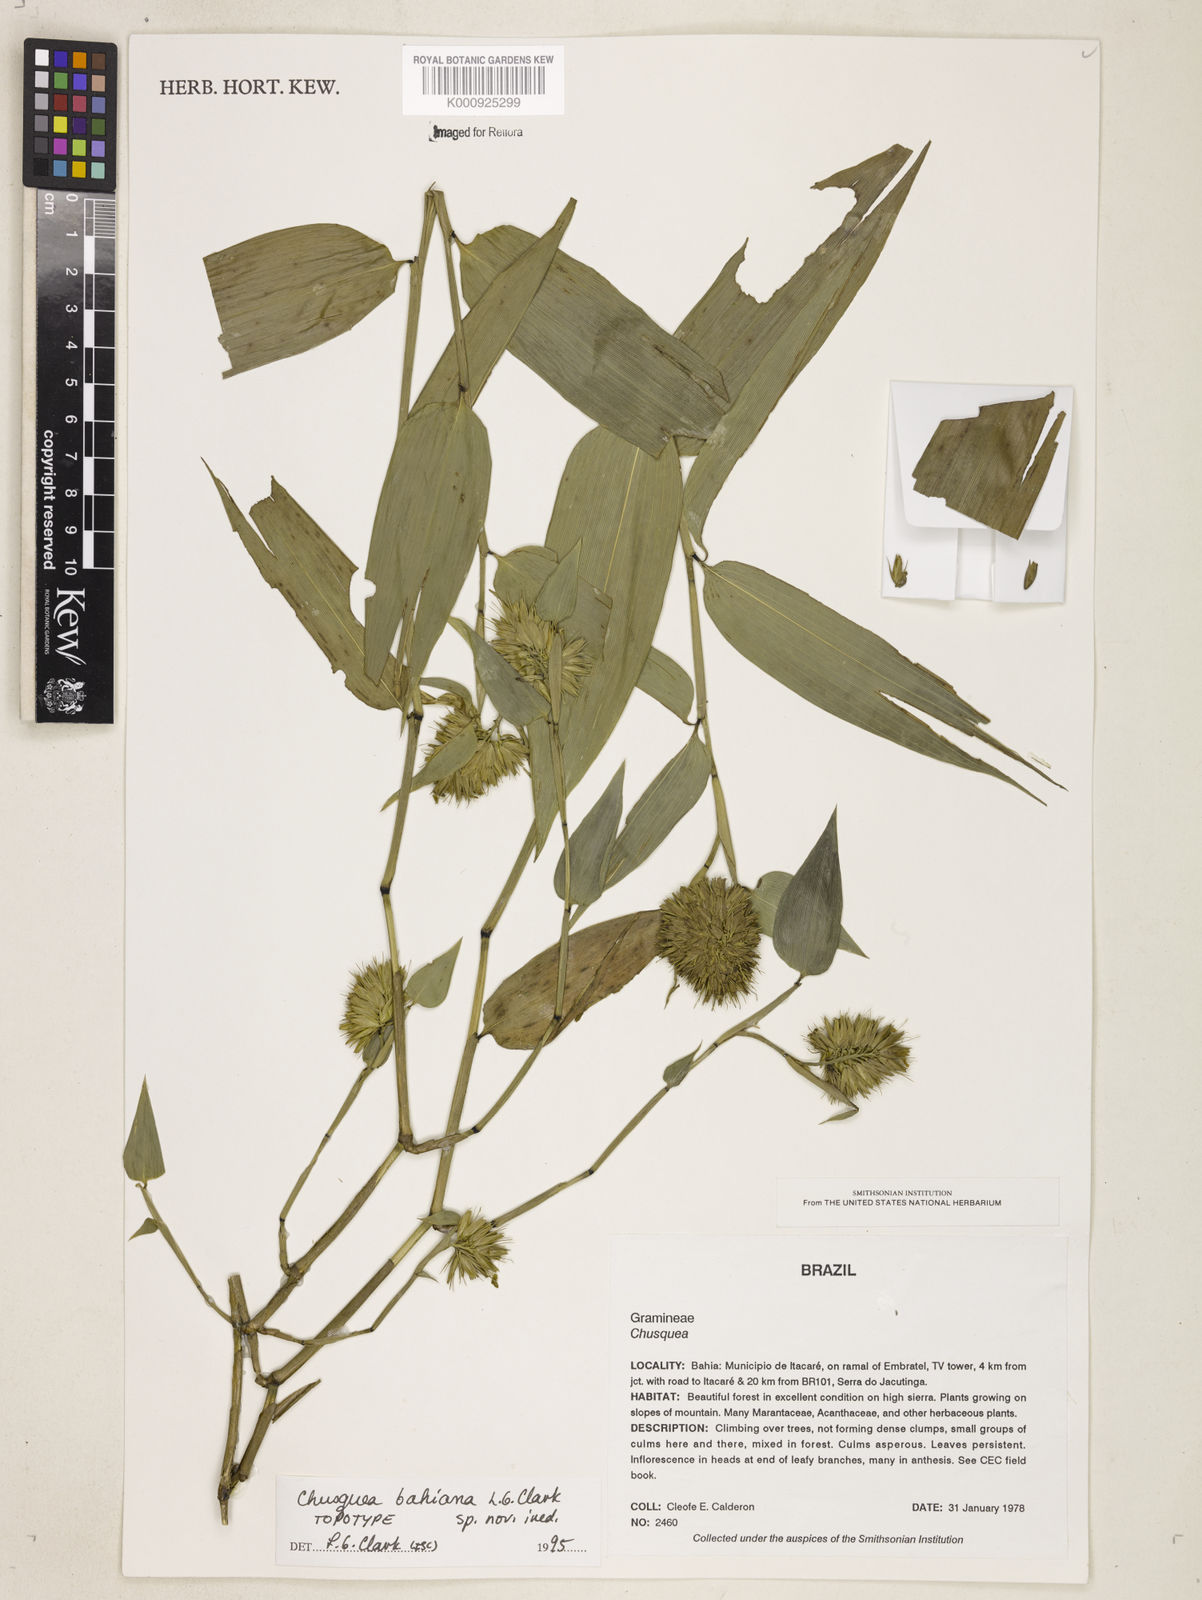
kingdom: Plantae
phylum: Tracheophyta
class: Liliopsida
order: Poales
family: Poaceae
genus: Chusquea
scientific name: Chusquea bahiana
